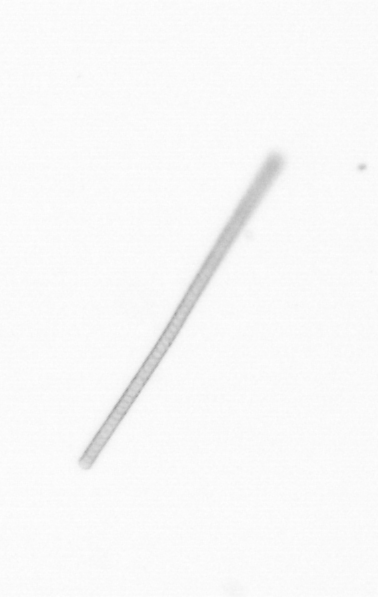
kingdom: Chromista
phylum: Ochrophyta
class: Bacillariophyceae
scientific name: Bacillariophyceae
